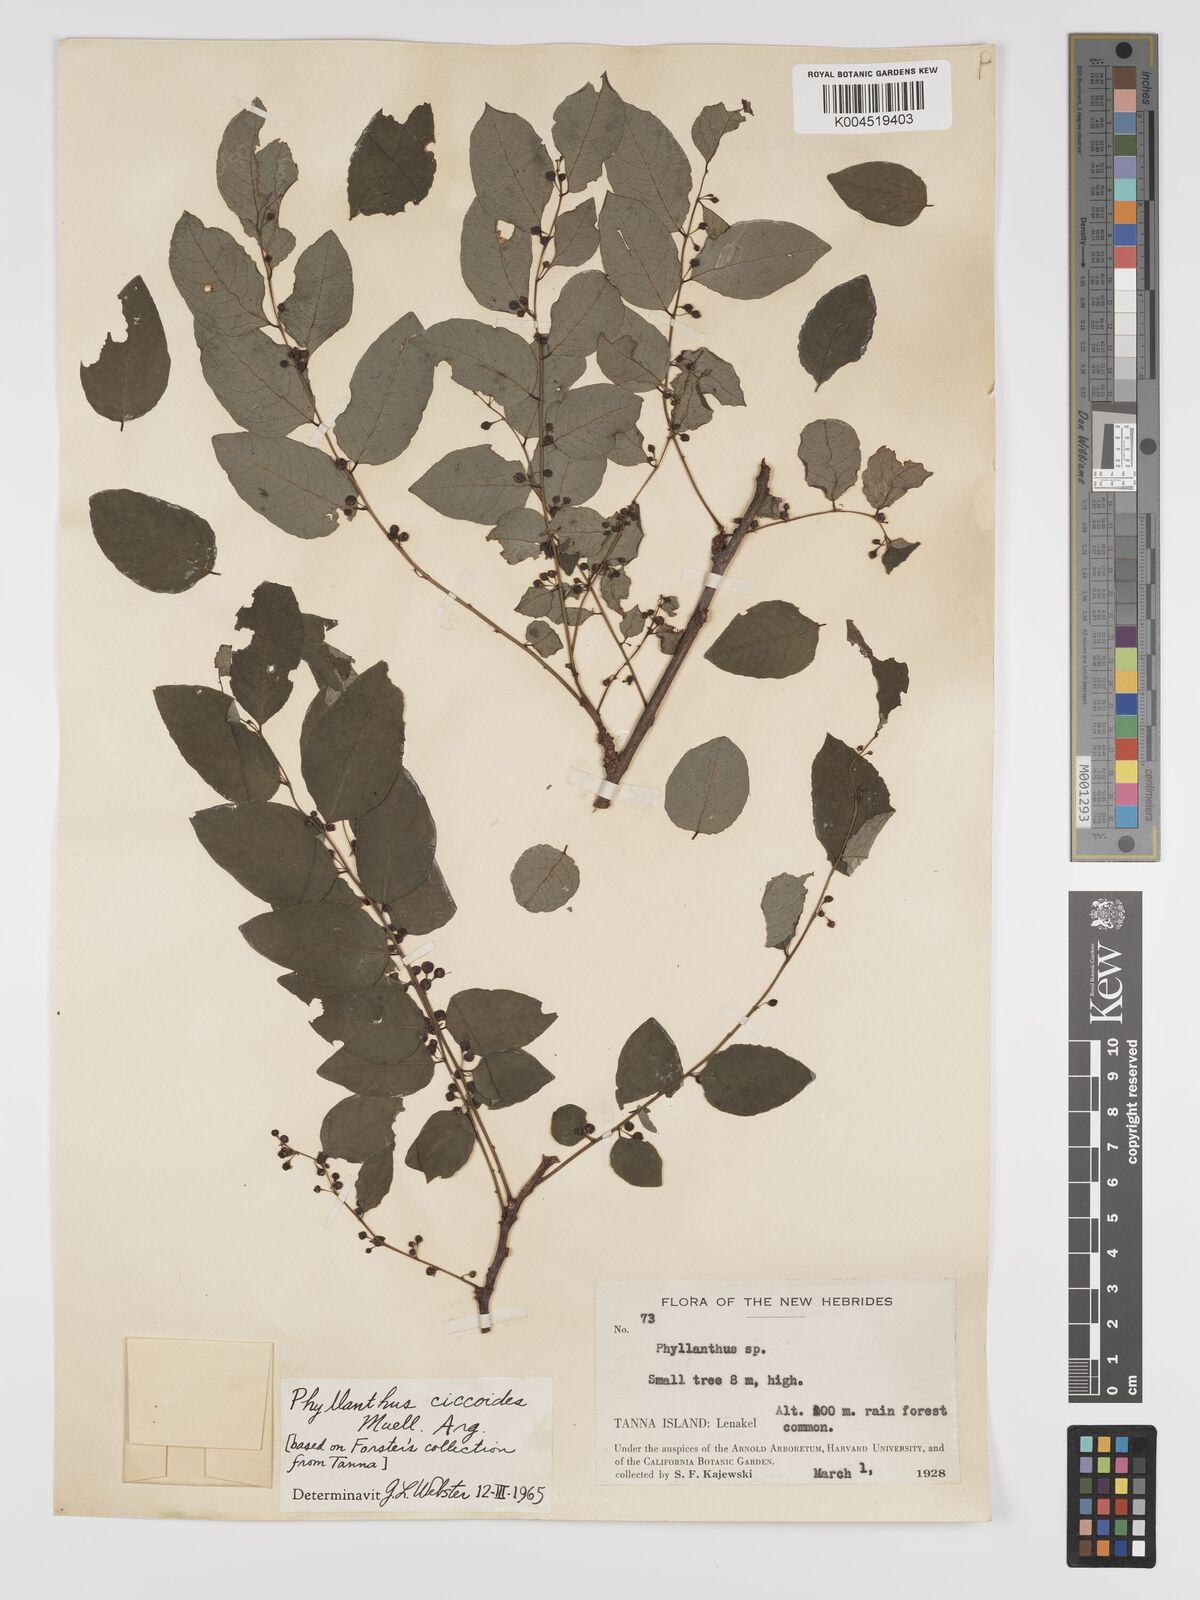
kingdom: Plantae
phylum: Tracheophyta
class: Magnoliopsida
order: Malpighiales
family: Phyllanthaceae
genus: Phyllanthus
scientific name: Phyllanthus ciccoides
